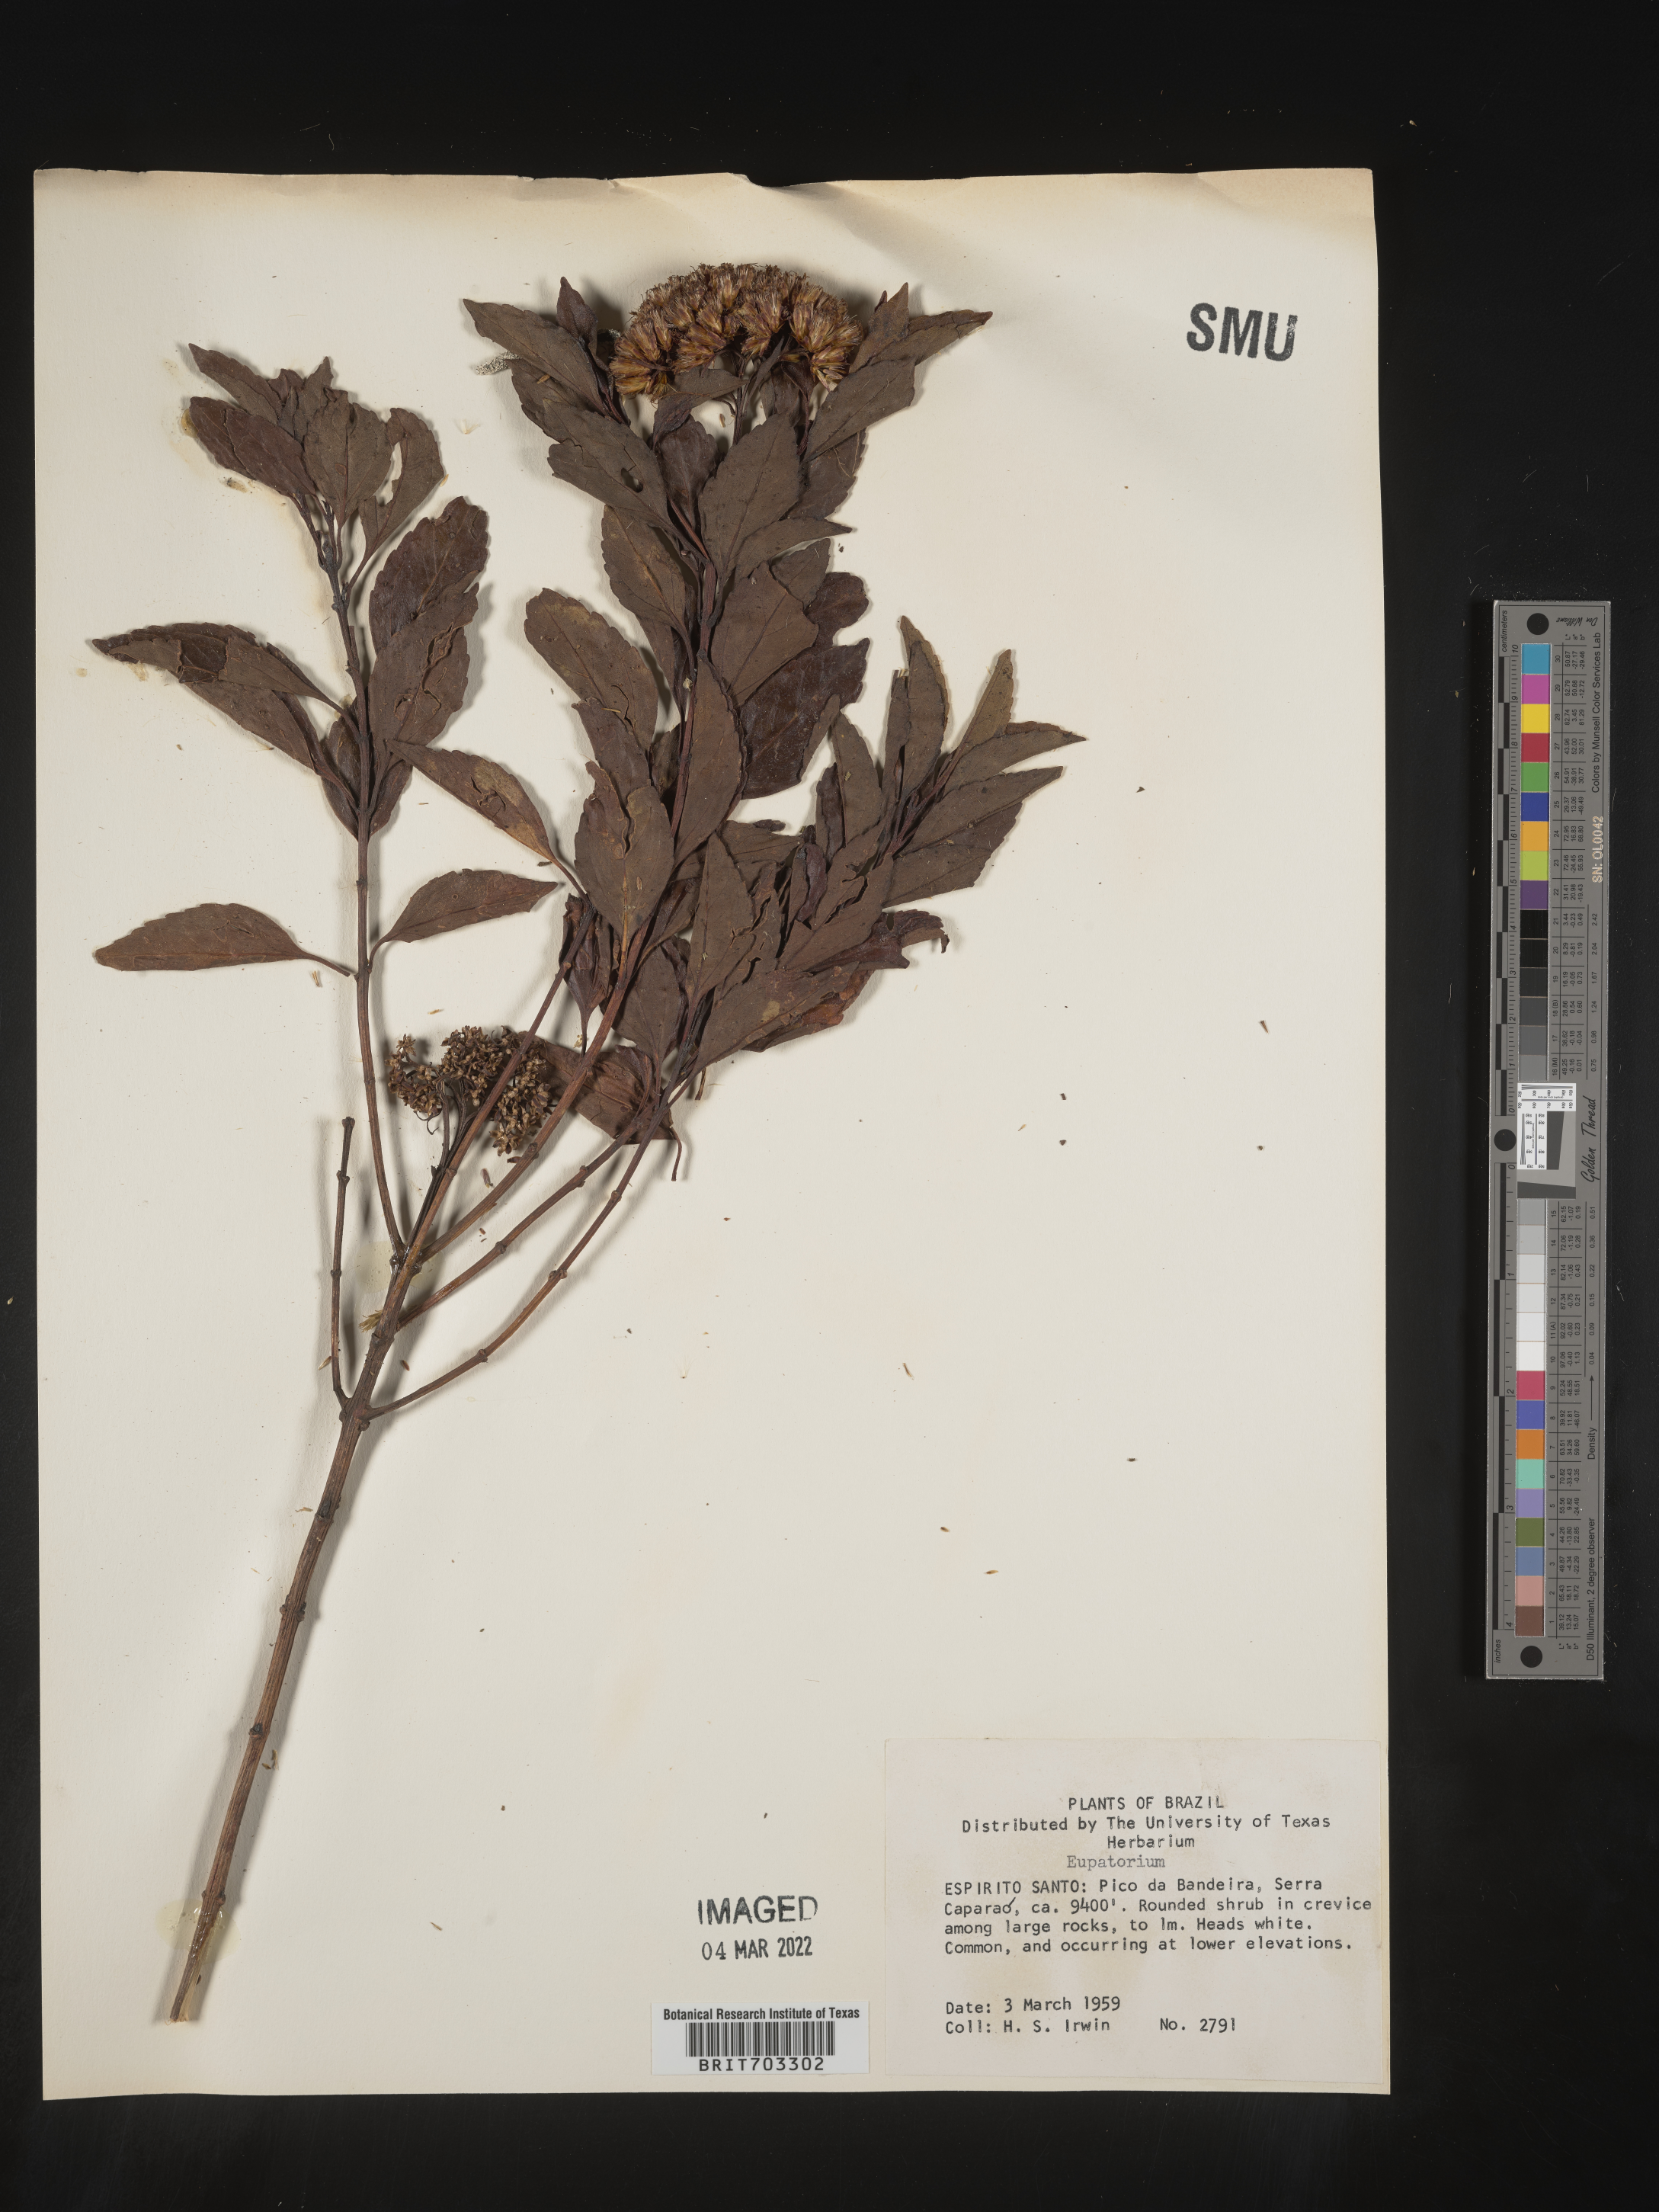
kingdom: Plantae
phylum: Tracheophyta
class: Magnoliopsida
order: Asterales
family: Asteraceae
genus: Eupatorium
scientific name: Eupatorium
